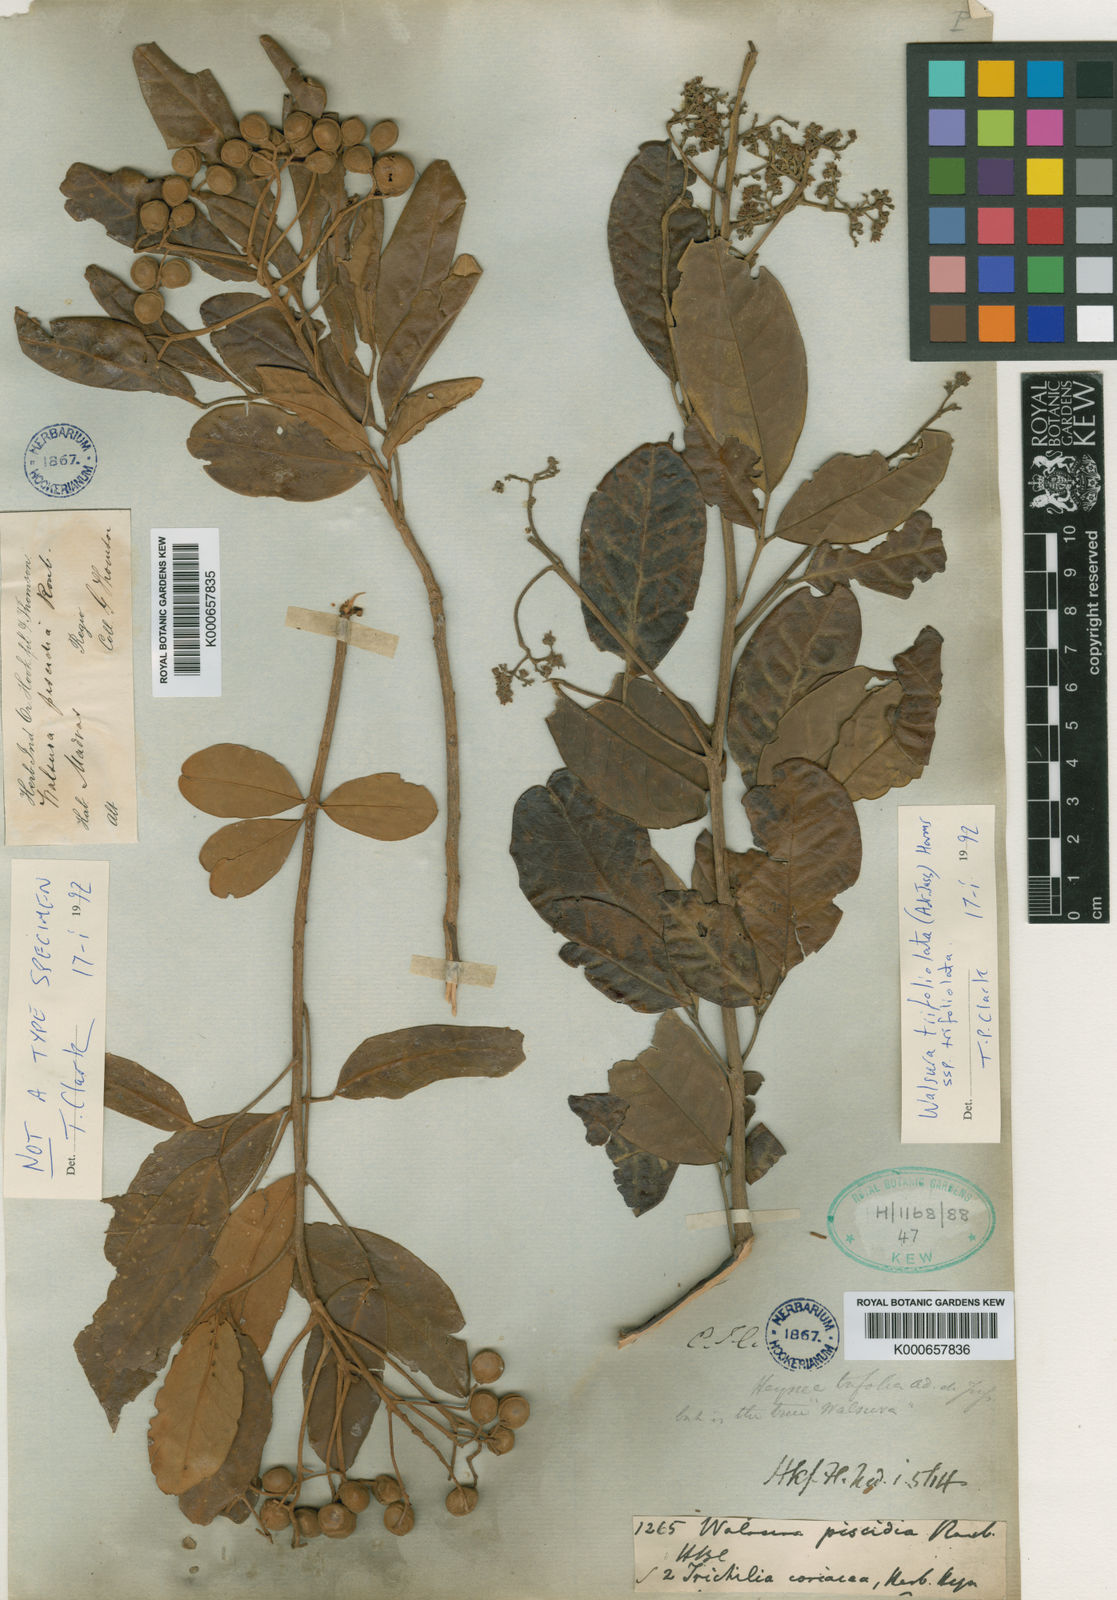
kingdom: Plantae
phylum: Tracheophyta
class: Magnoliopsida
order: Sapindales
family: Meliaceae
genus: Walsura
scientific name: Walsura
